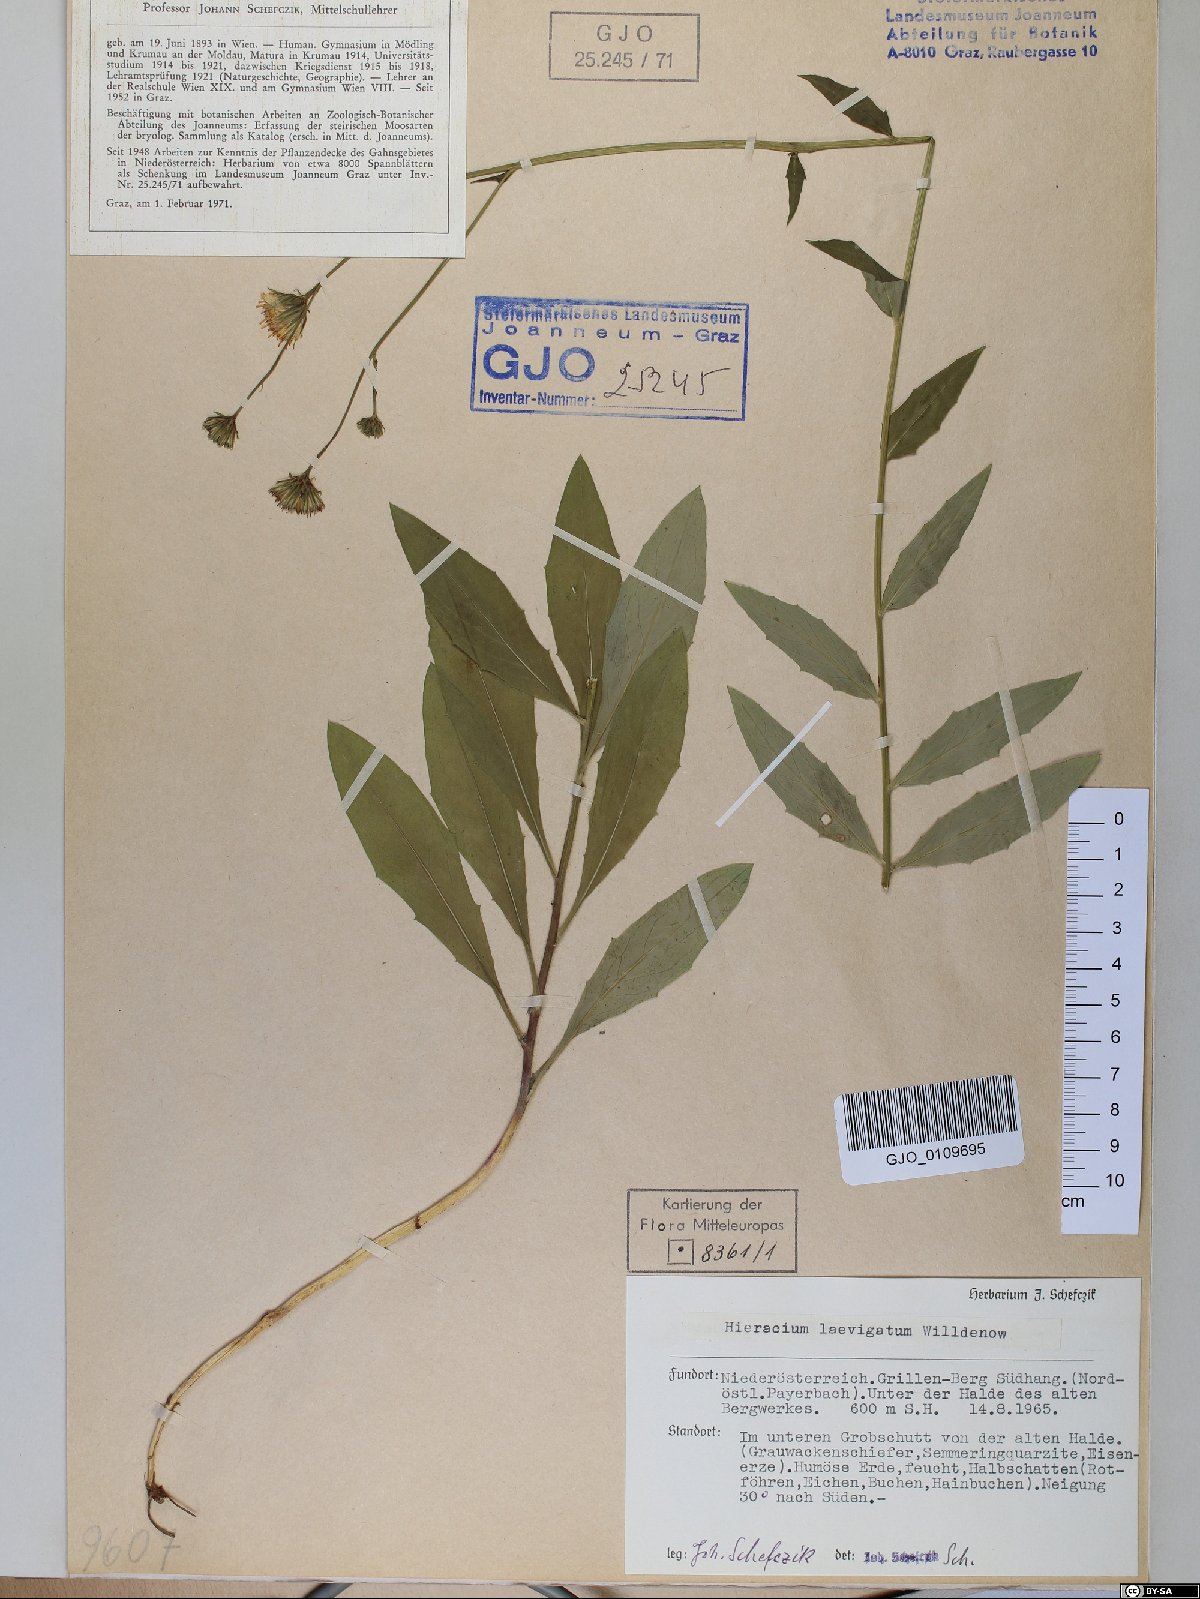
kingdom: Plantae
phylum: Tracheophyta
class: Magnoliopsida
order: Asterales
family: Asteraceae
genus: Hieracium
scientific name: Hieracium laevigatum
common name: Smooth hawkweed
